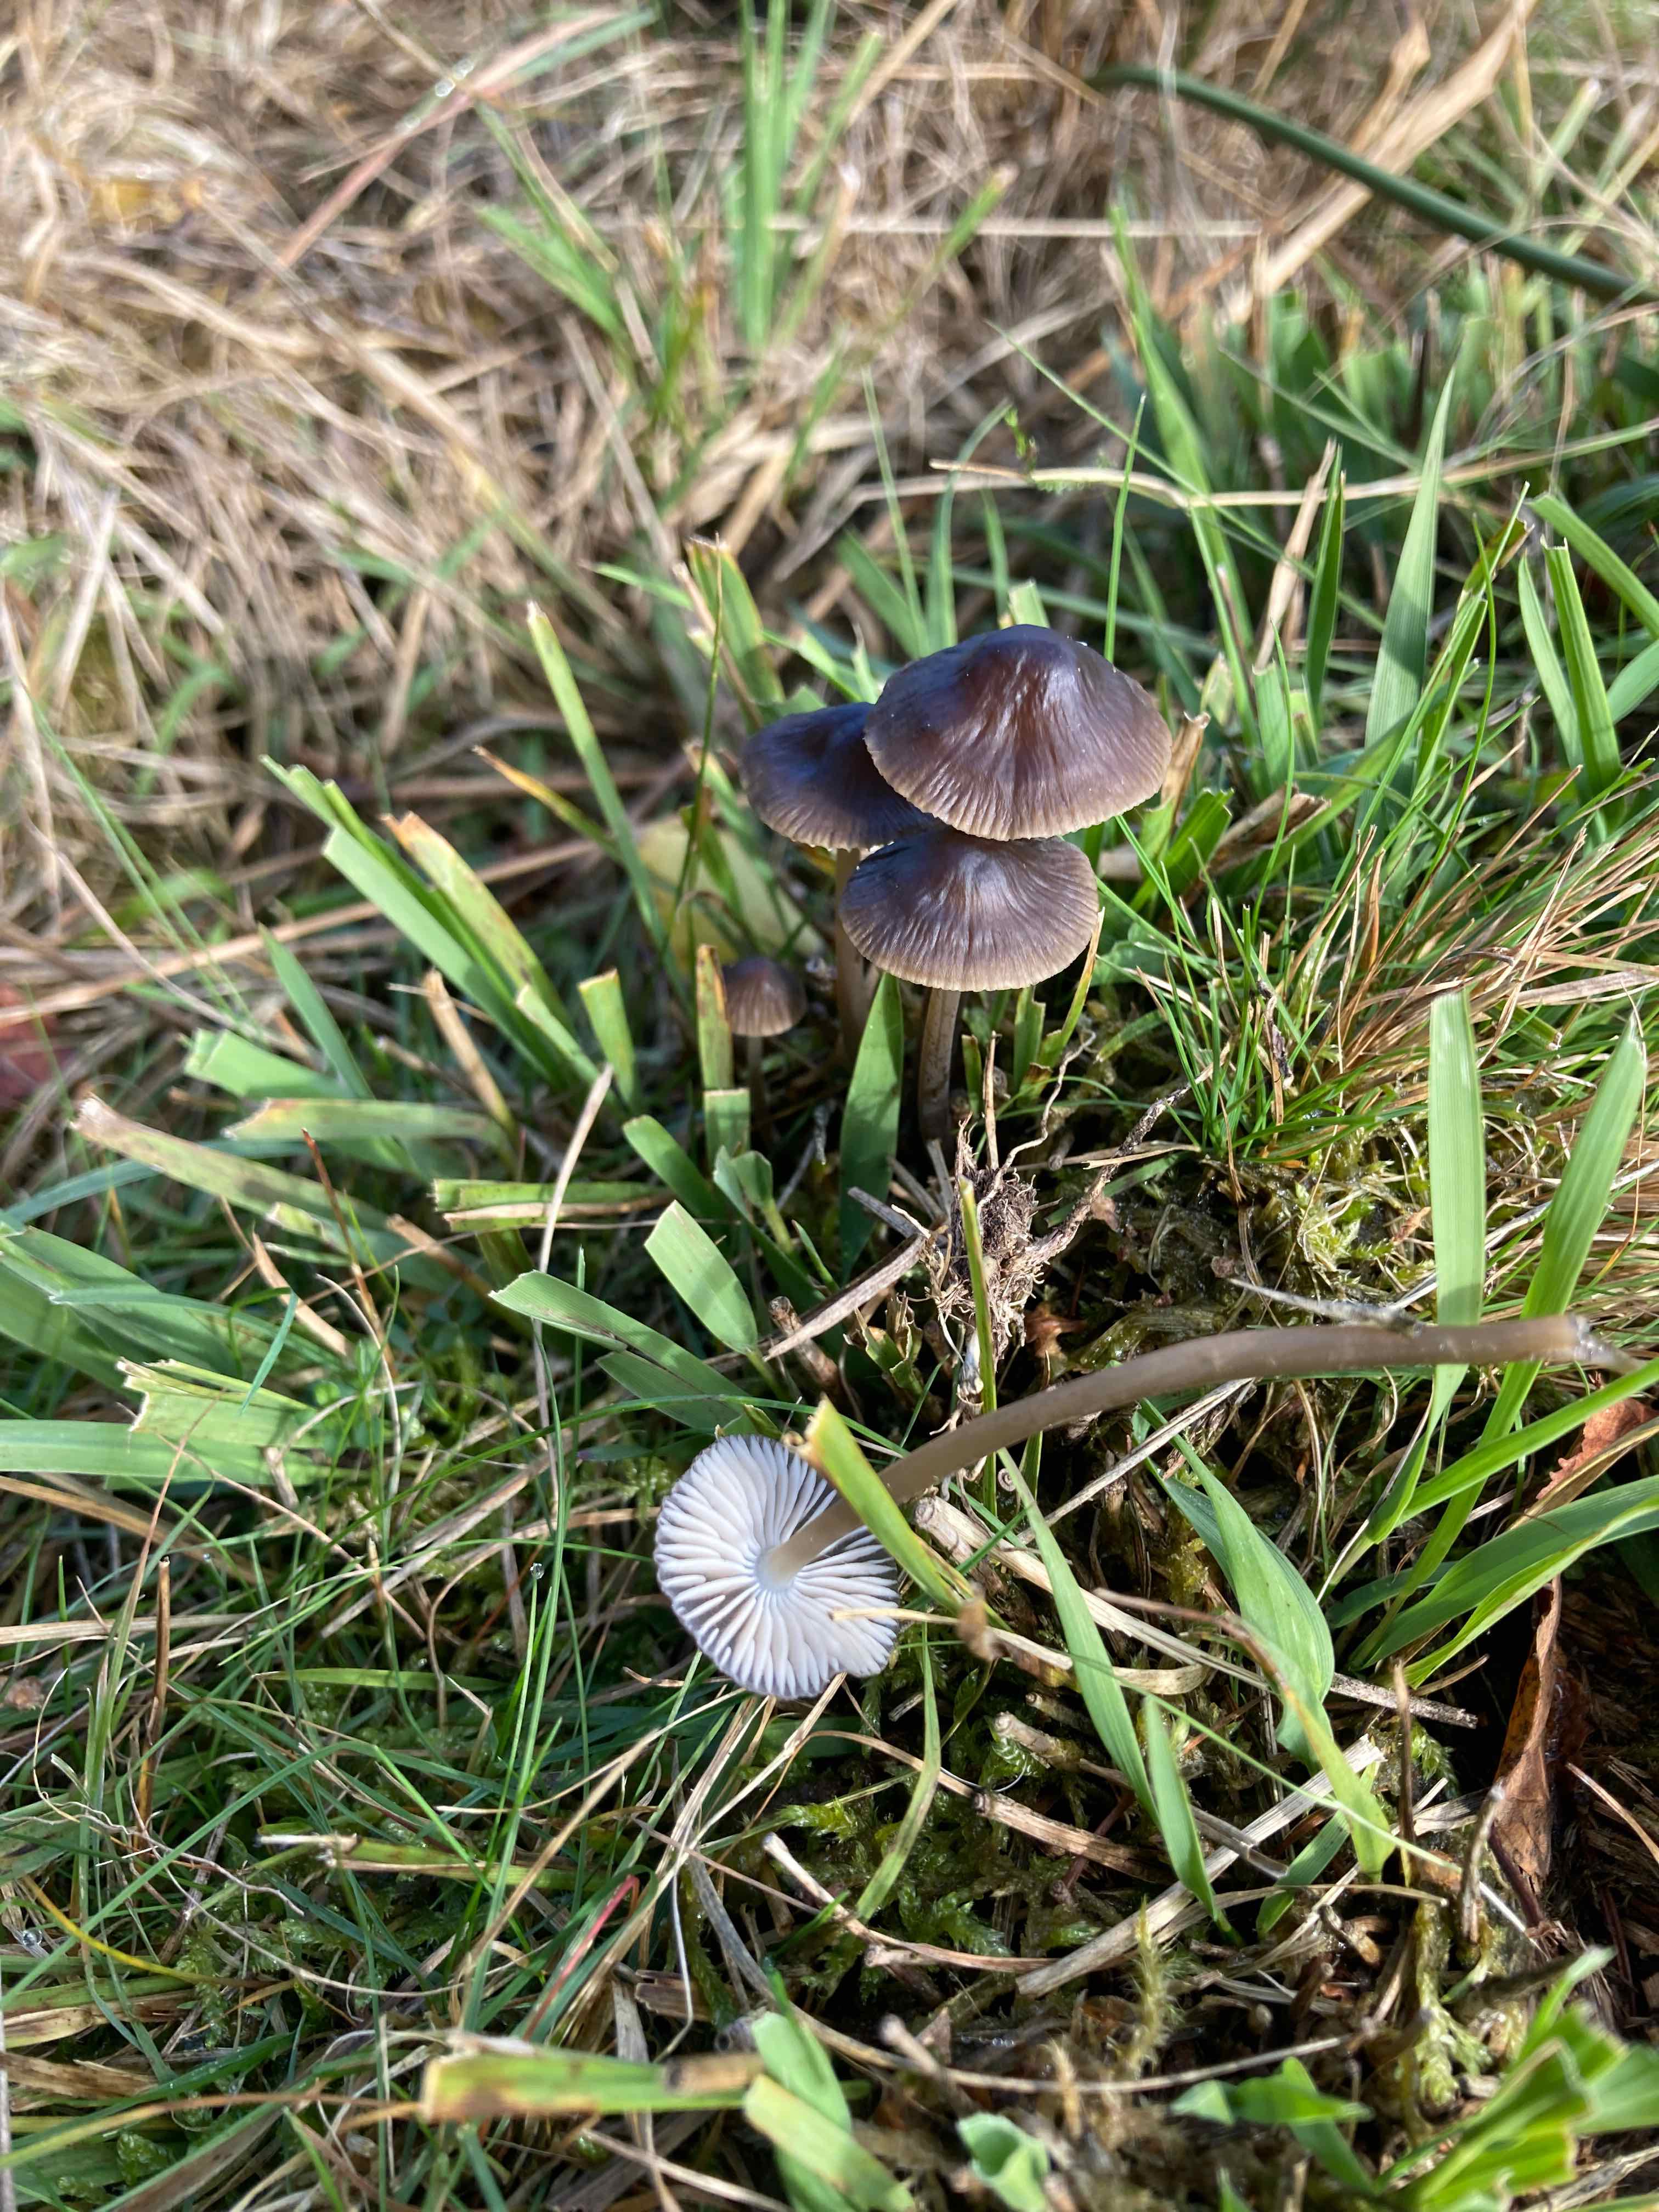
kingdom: Fungi
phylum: Basidiomycota
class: Agaricomycetes
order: Agaricales
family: Mycenaceae
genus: Mycena
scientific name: Mycena megaspora
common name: brusk-huesvamp
